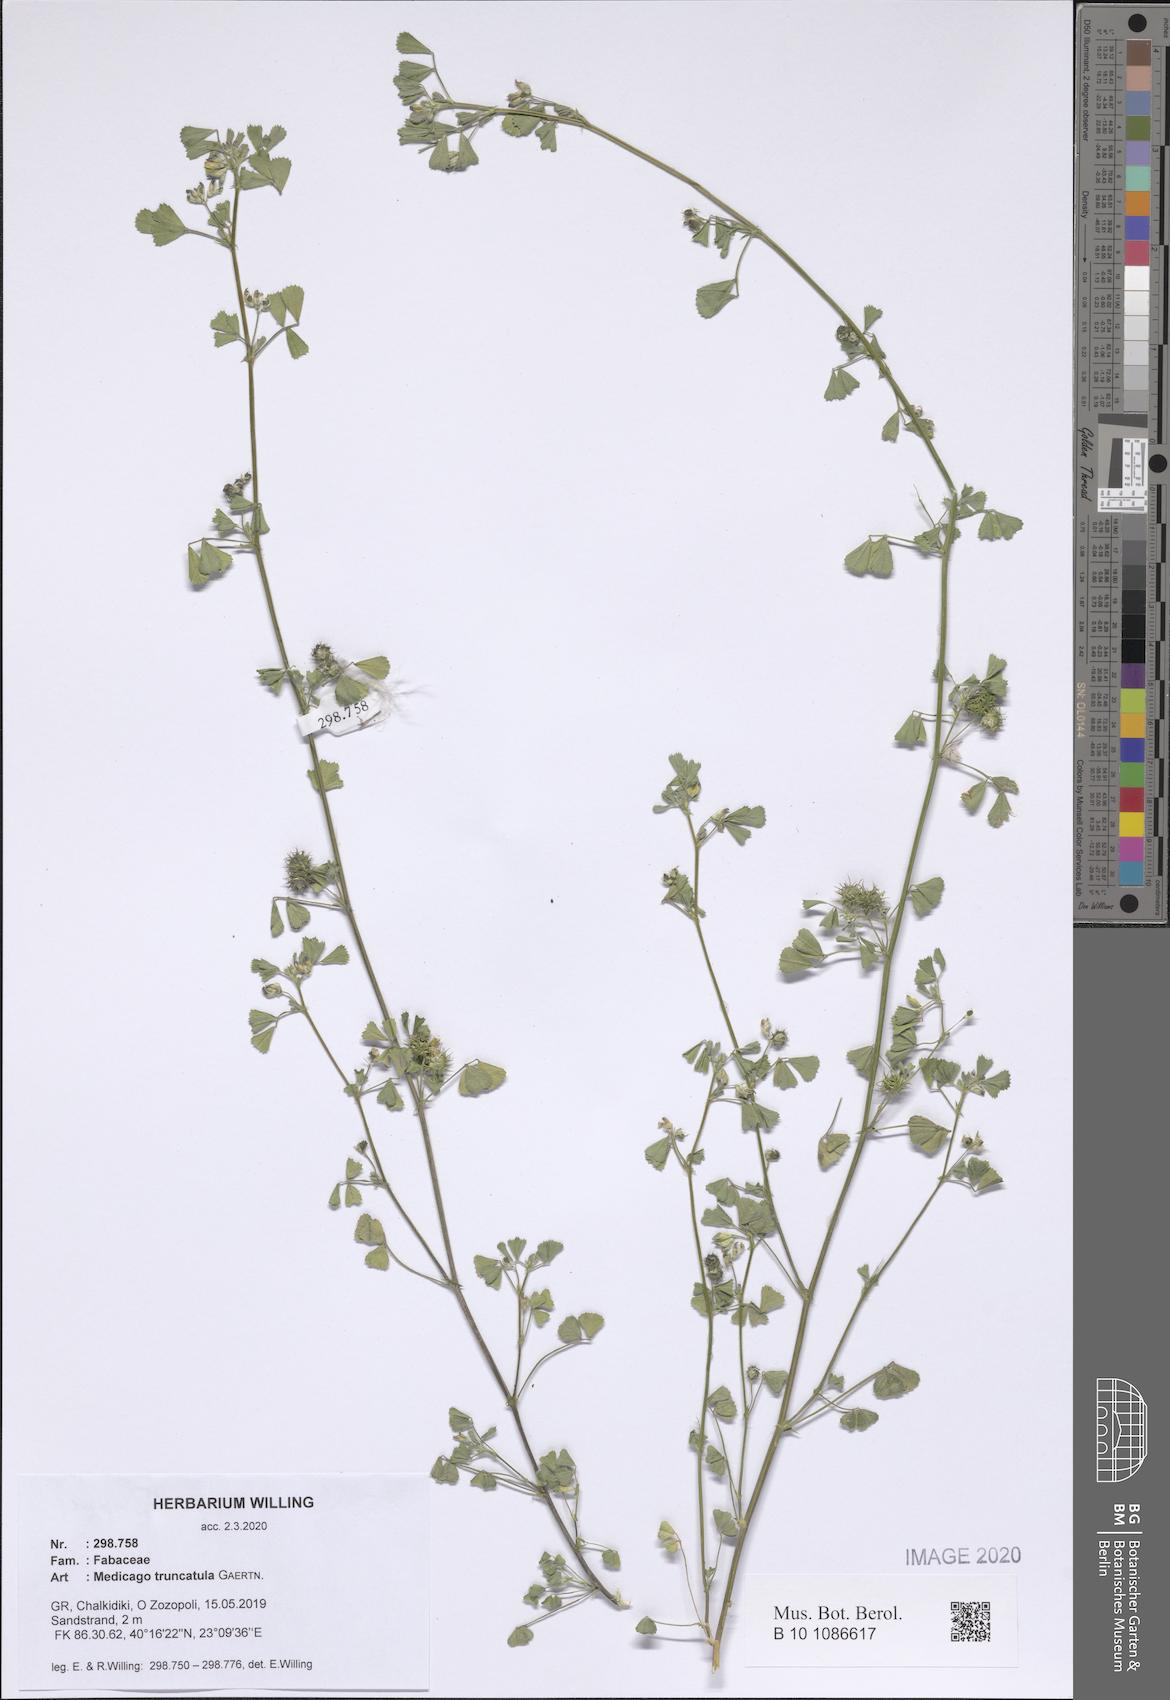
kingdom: Plantae
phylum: Tracheophyta
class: Magnoliopsida
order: Fabales
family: Fabaceae
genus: Medicago
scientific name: Medicago truncatula
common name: Strong-spined medick
